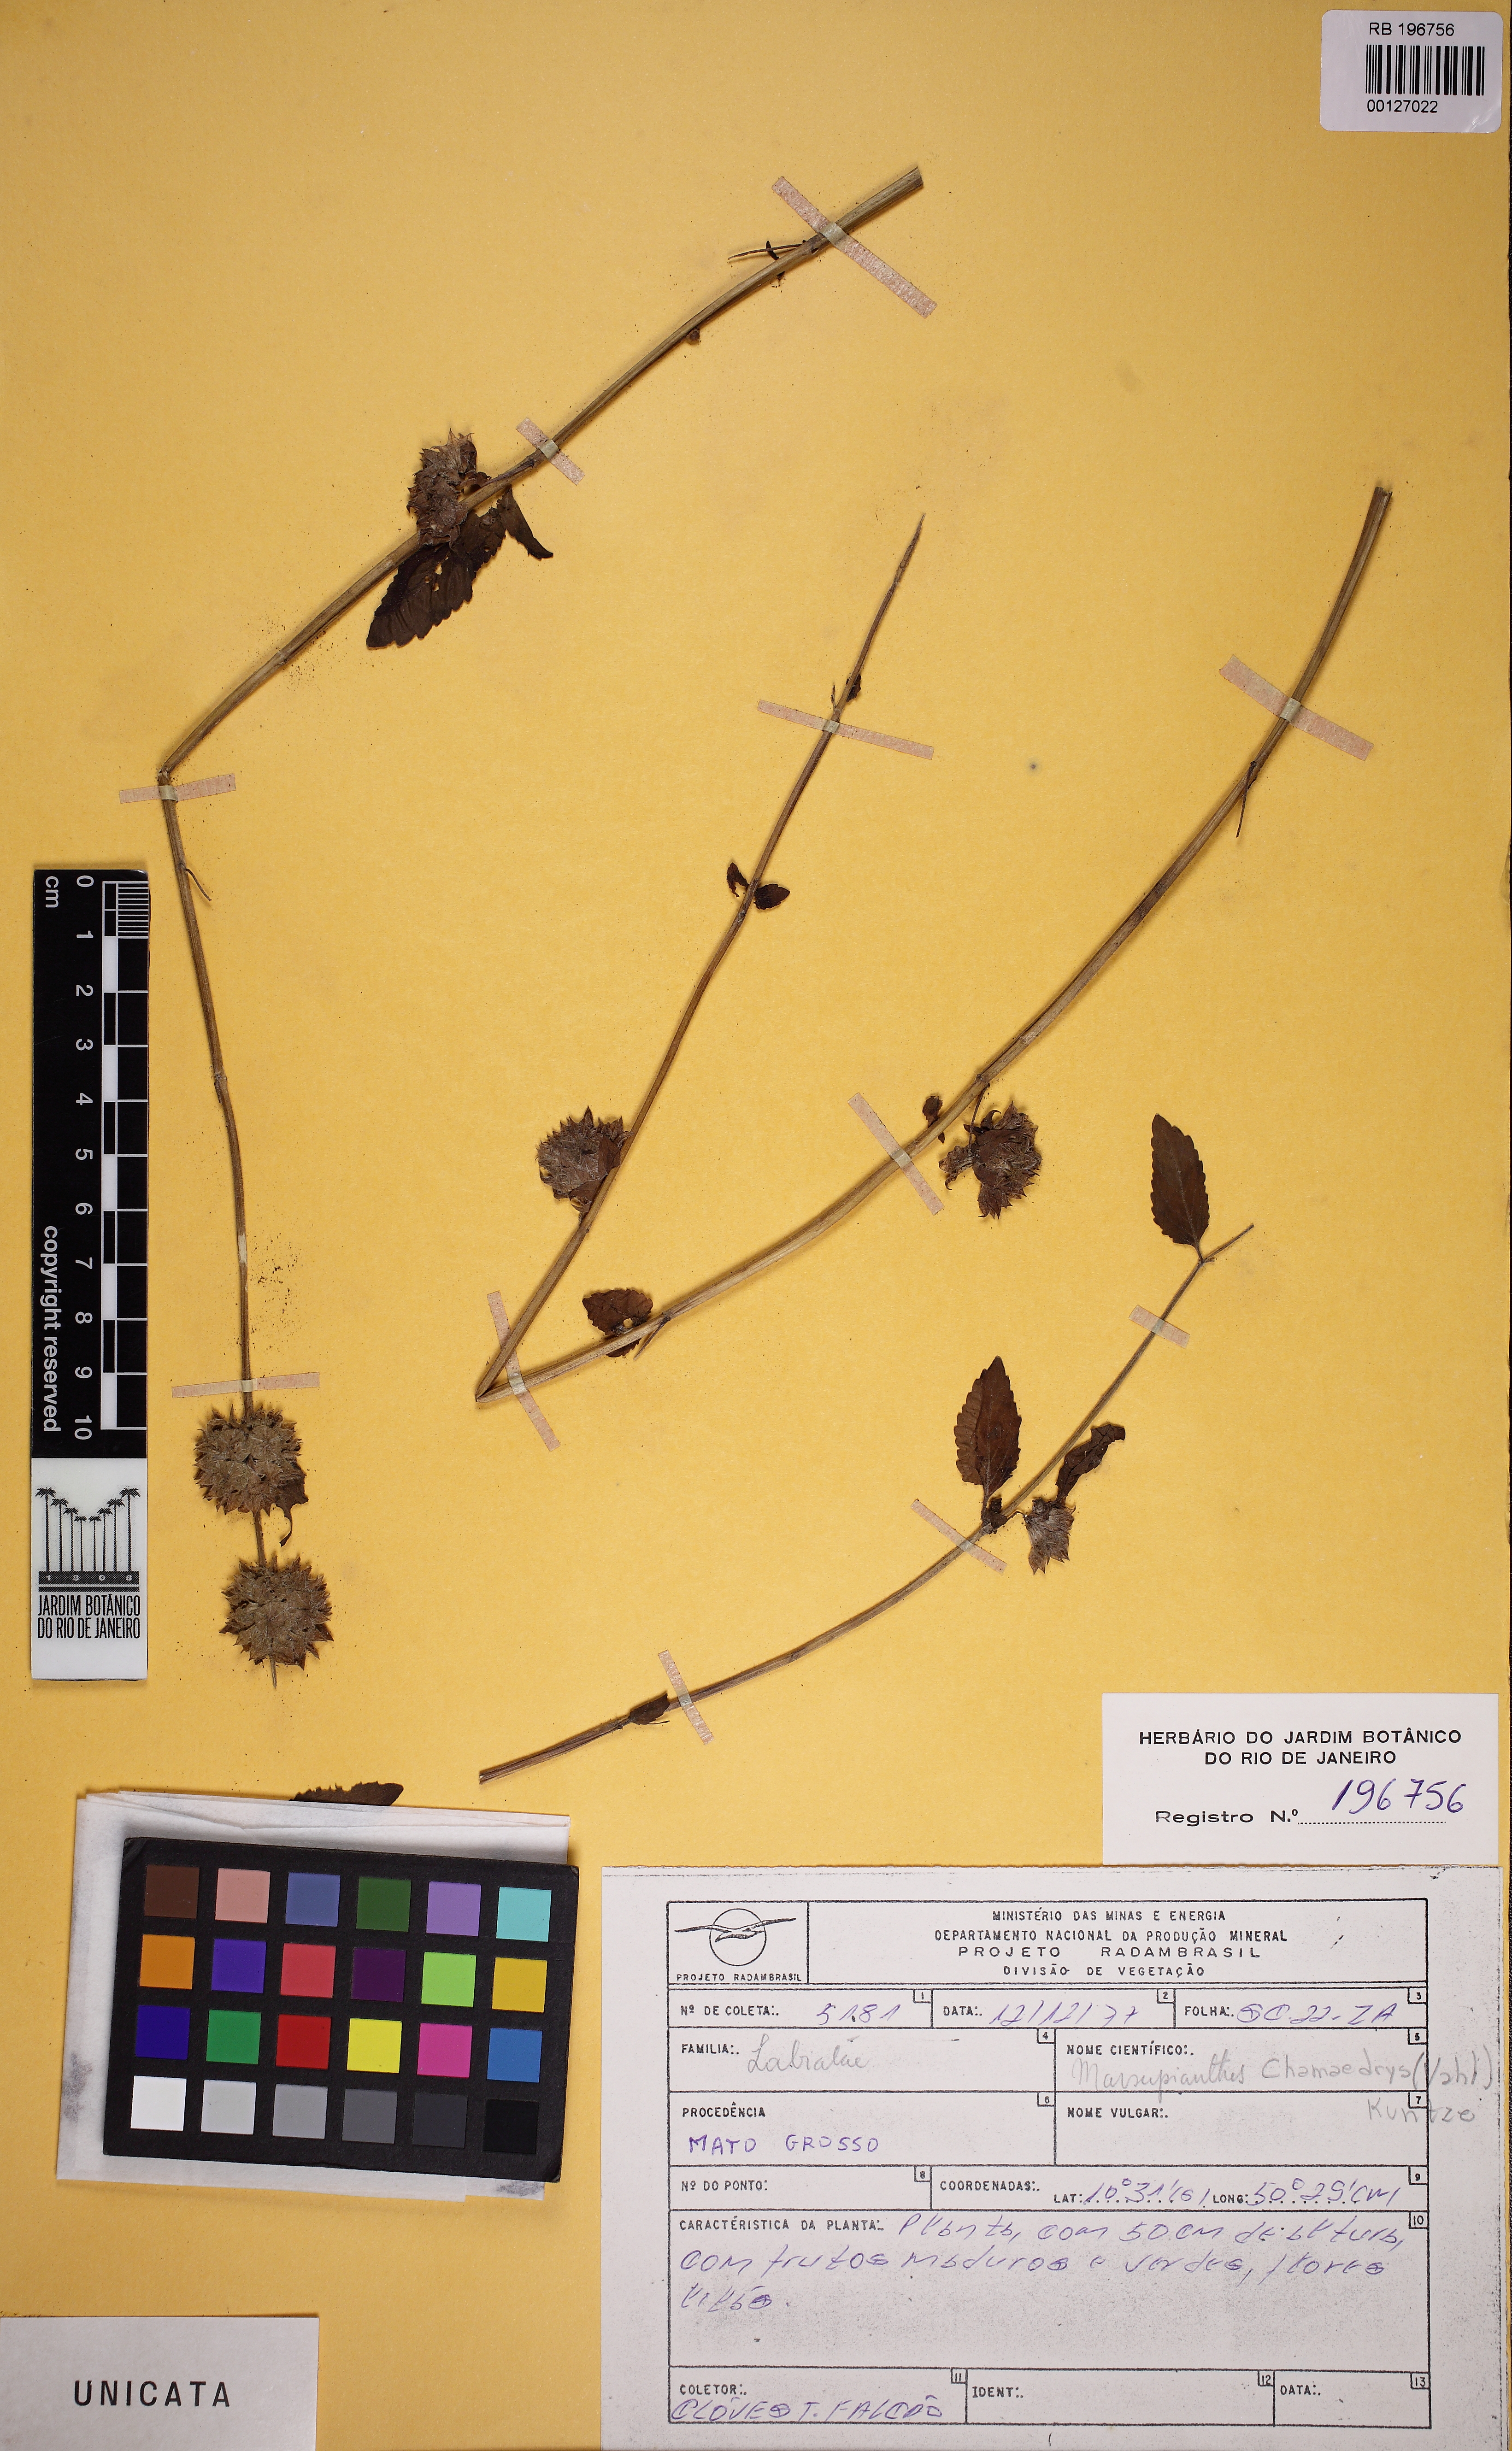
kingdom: Plantae
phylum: Tracheophyta
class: Magnoliopsida
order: Lamiales
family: Lamiaceae
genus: Marsypianthes
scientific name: Marsypianthes chamaedrys
